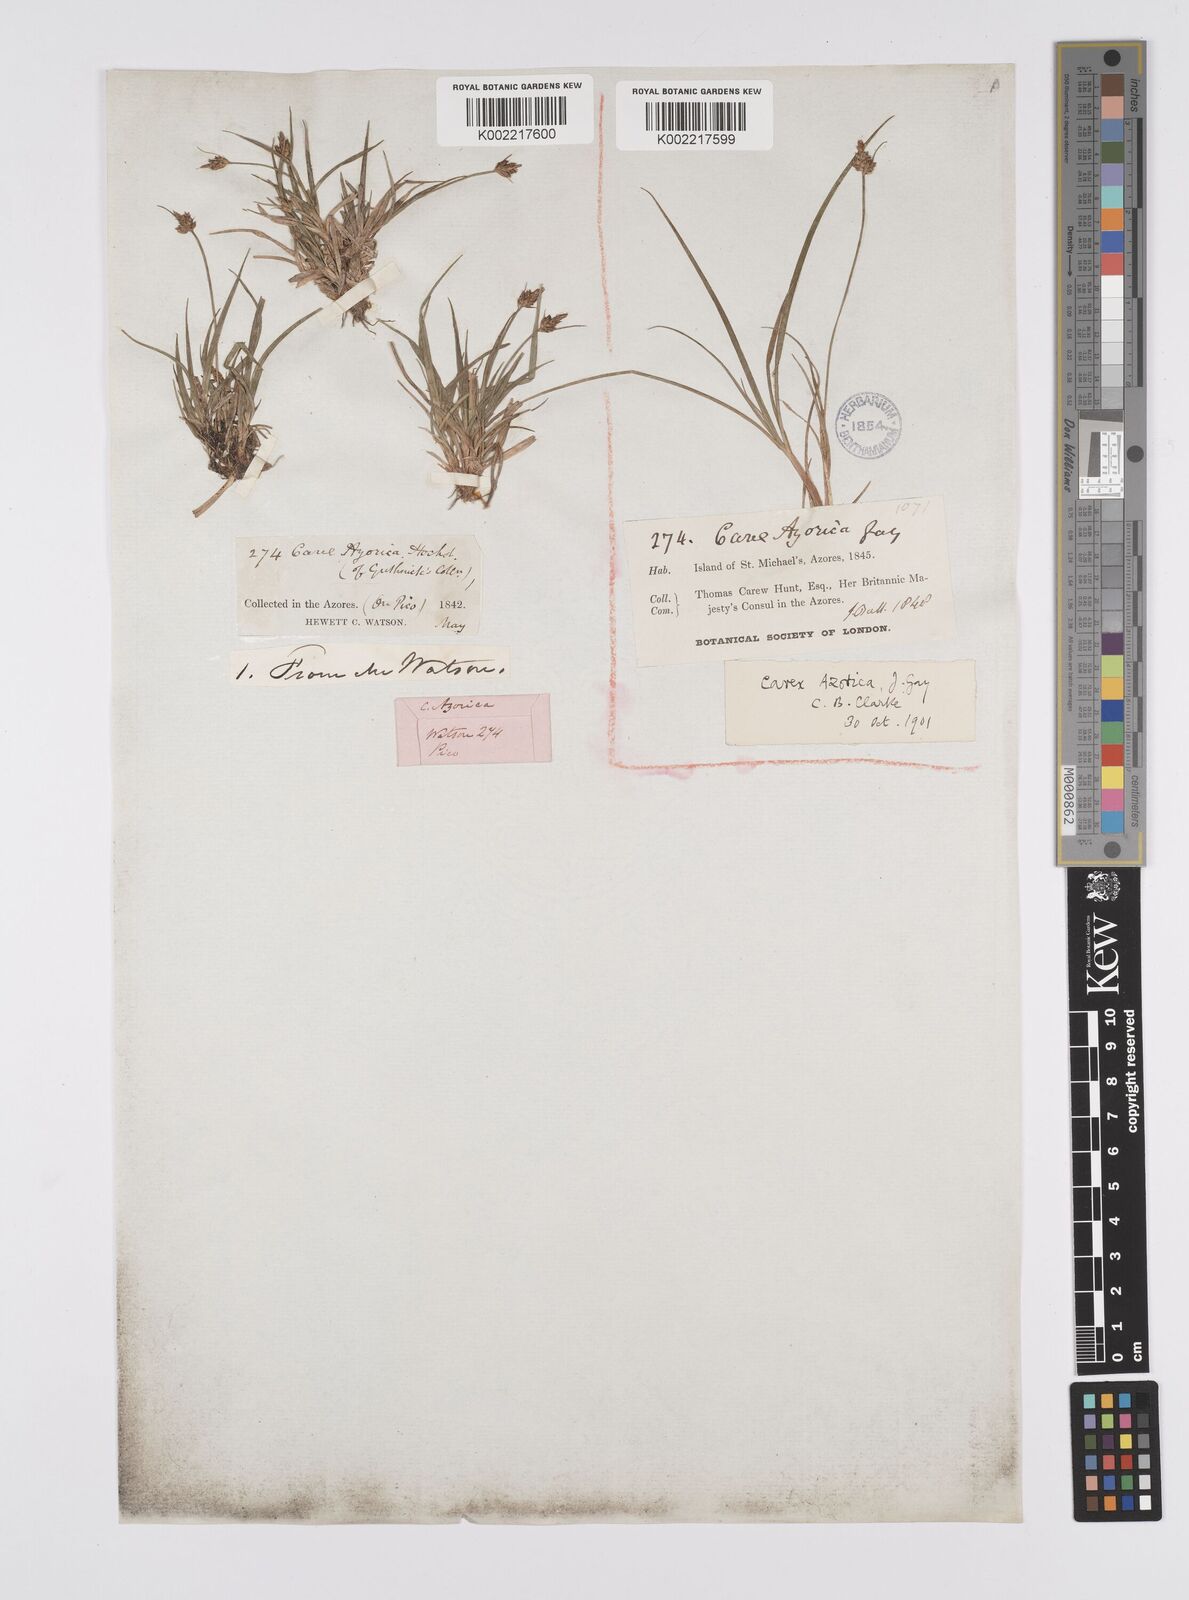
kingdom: Plantae
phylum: Tracheophyta
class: Liliopsida
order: Poales
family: Cyperaceae
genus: Carex
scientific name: Carex pilulifera
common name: Pill sedge
